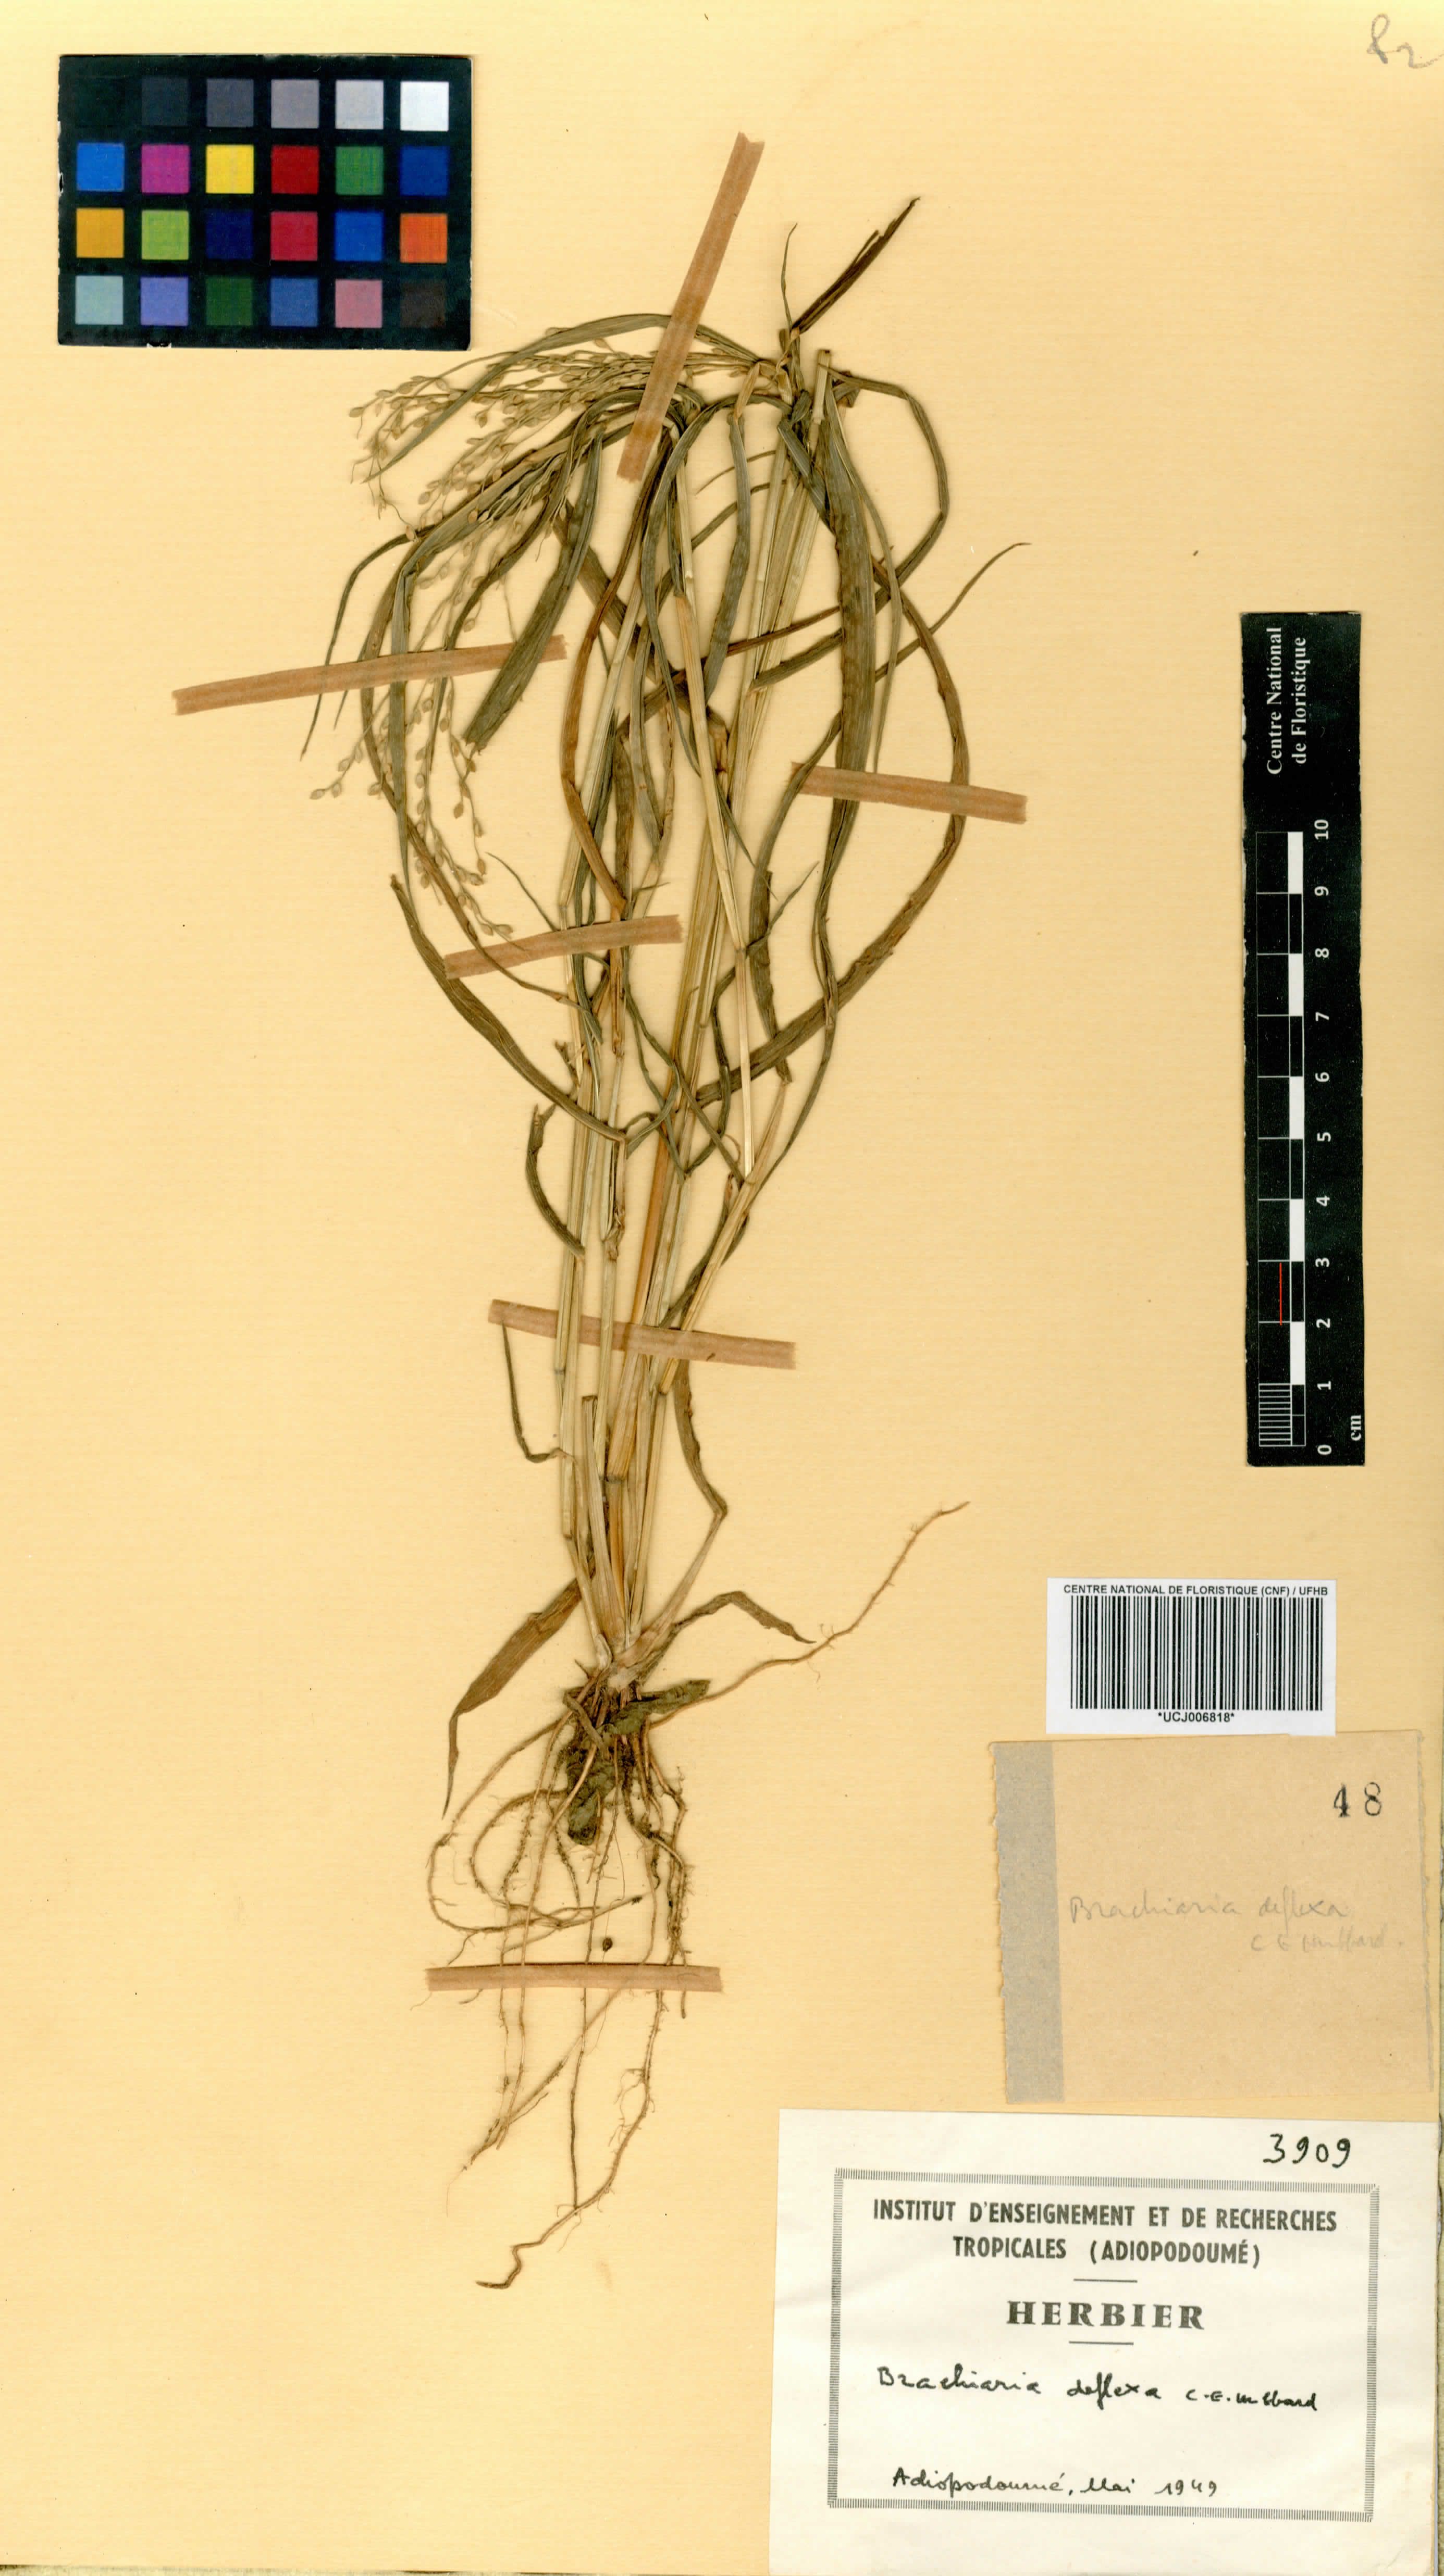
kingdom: Plantae
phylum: Tracheophyta
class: Liliopsida
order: Poales
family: Poaceae
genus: Urochloa
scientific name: Urochloa deflexa
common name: Guinea millet
